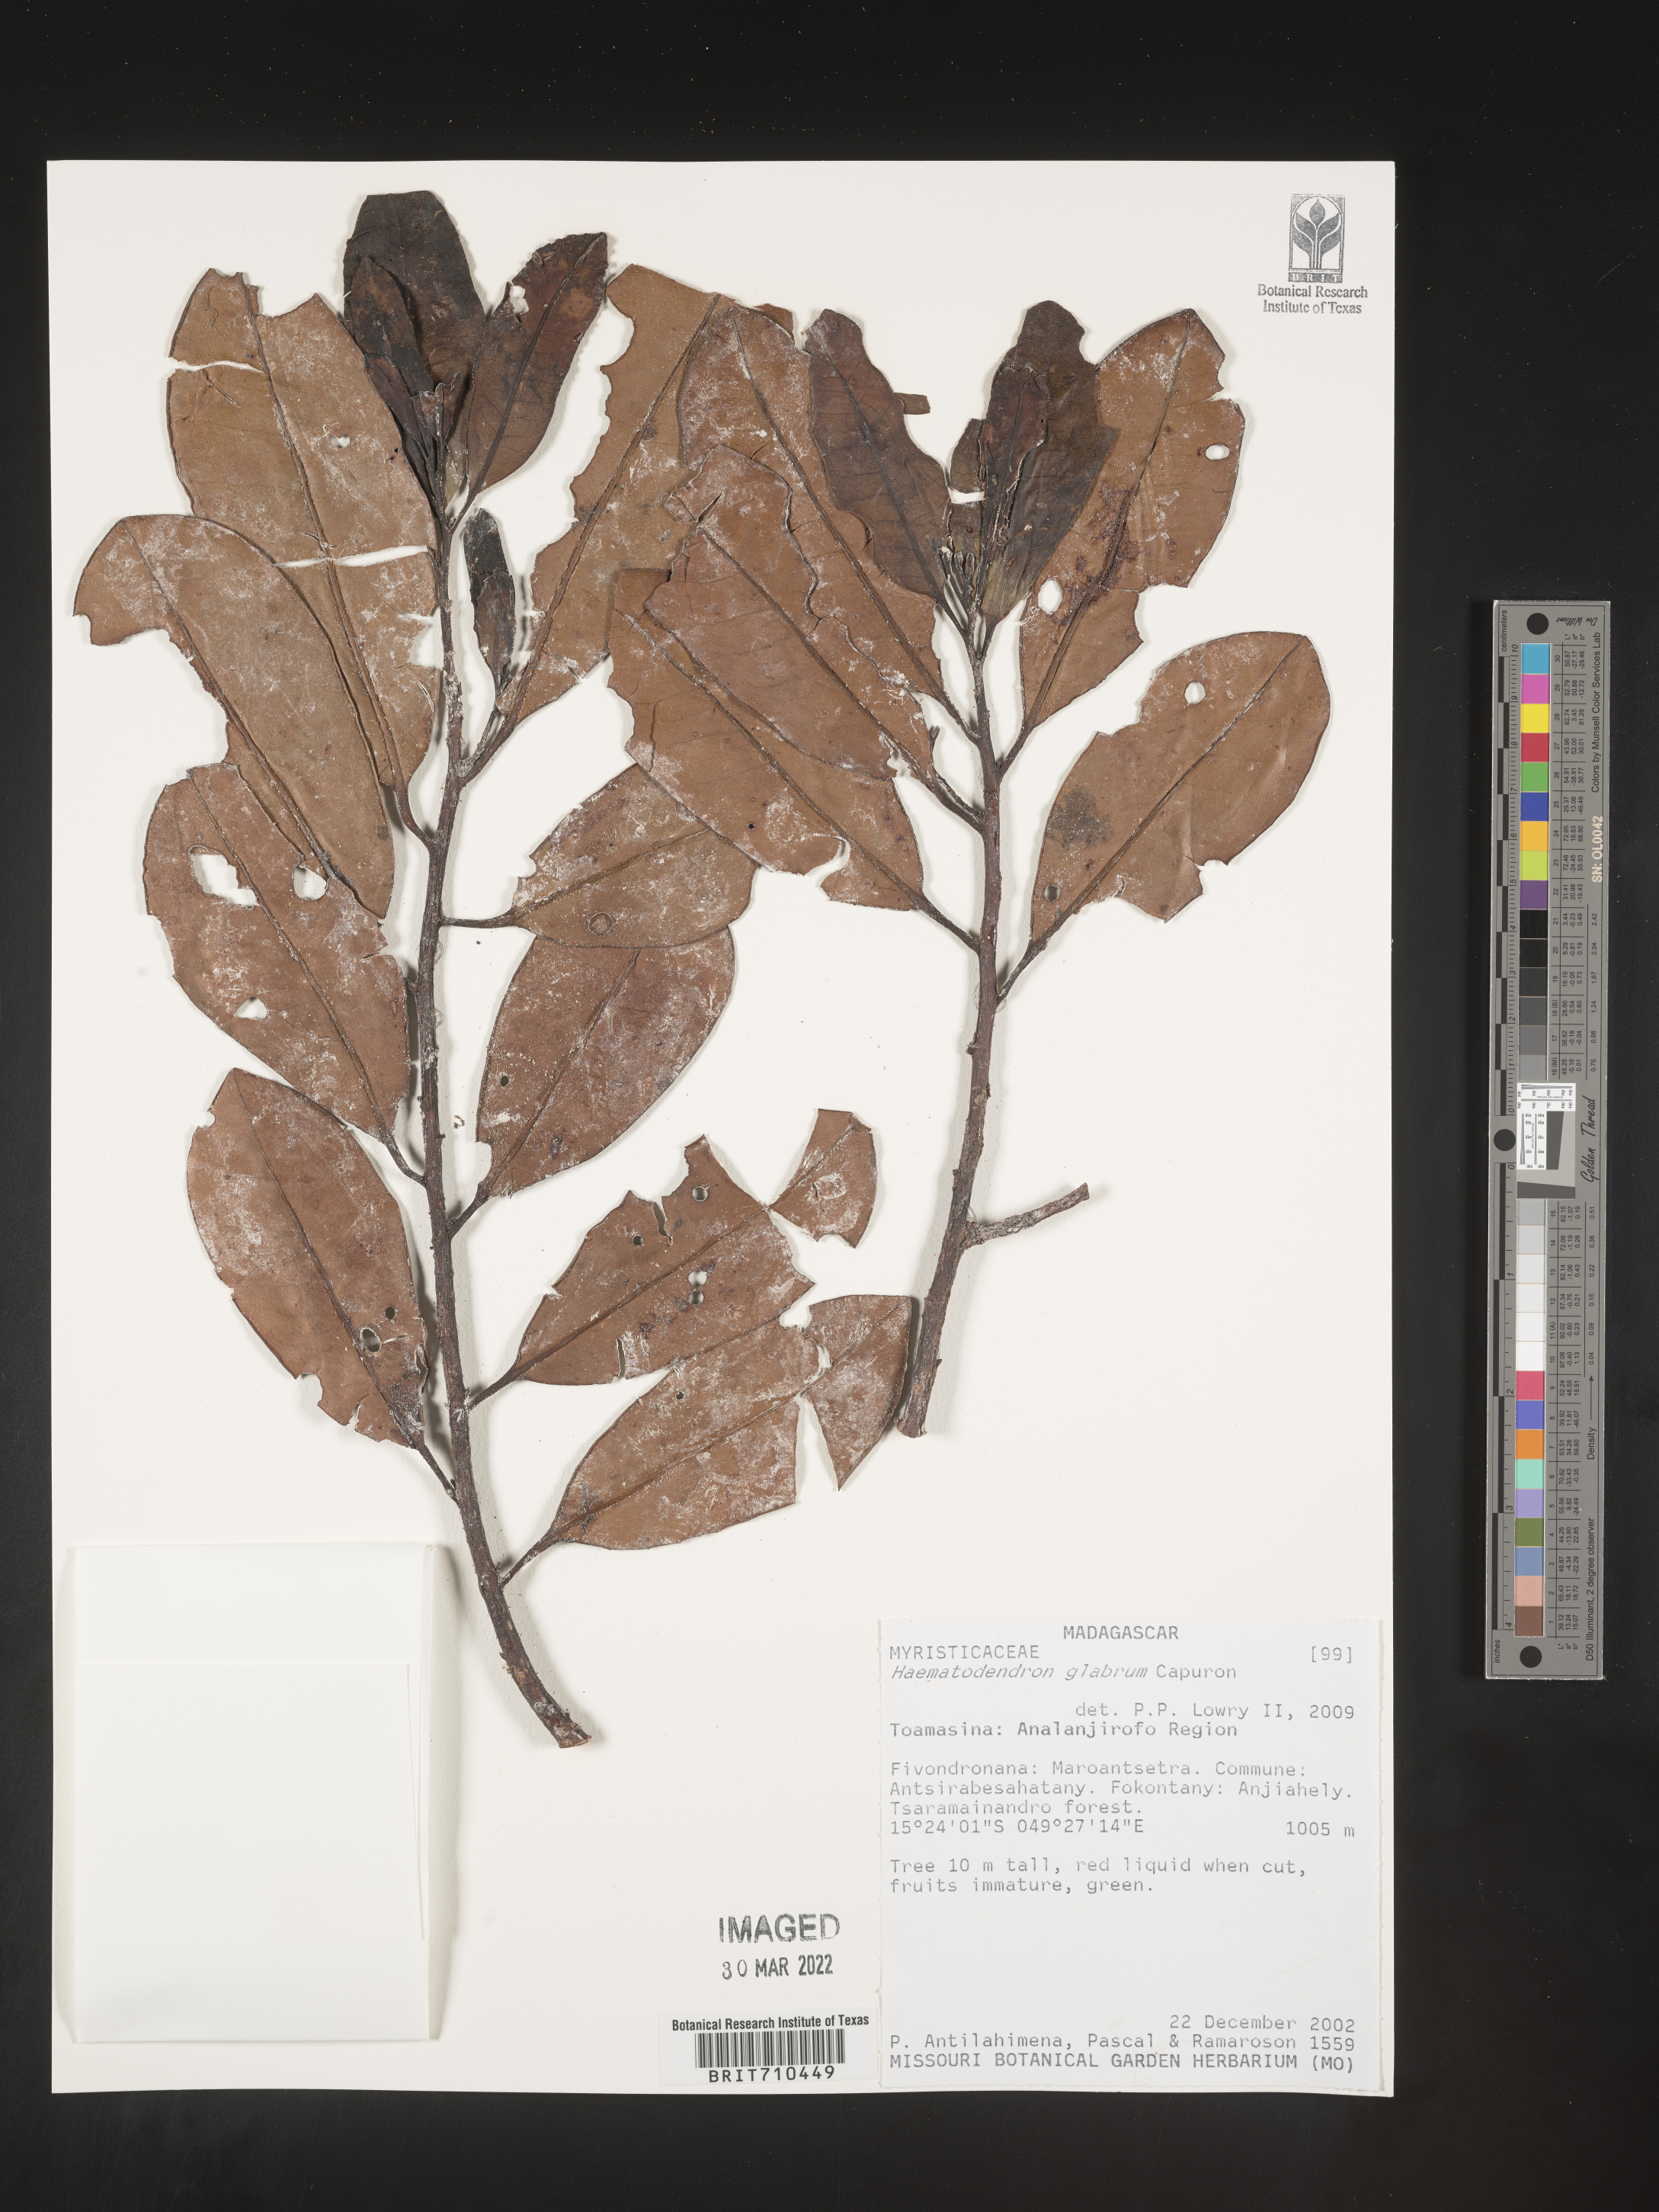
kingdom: Plantae
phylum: Tracheophyta
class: Magnoliopsida
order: Magnoliales
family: Myristicaceae
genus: Haematodendron
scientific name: Haematodendron
